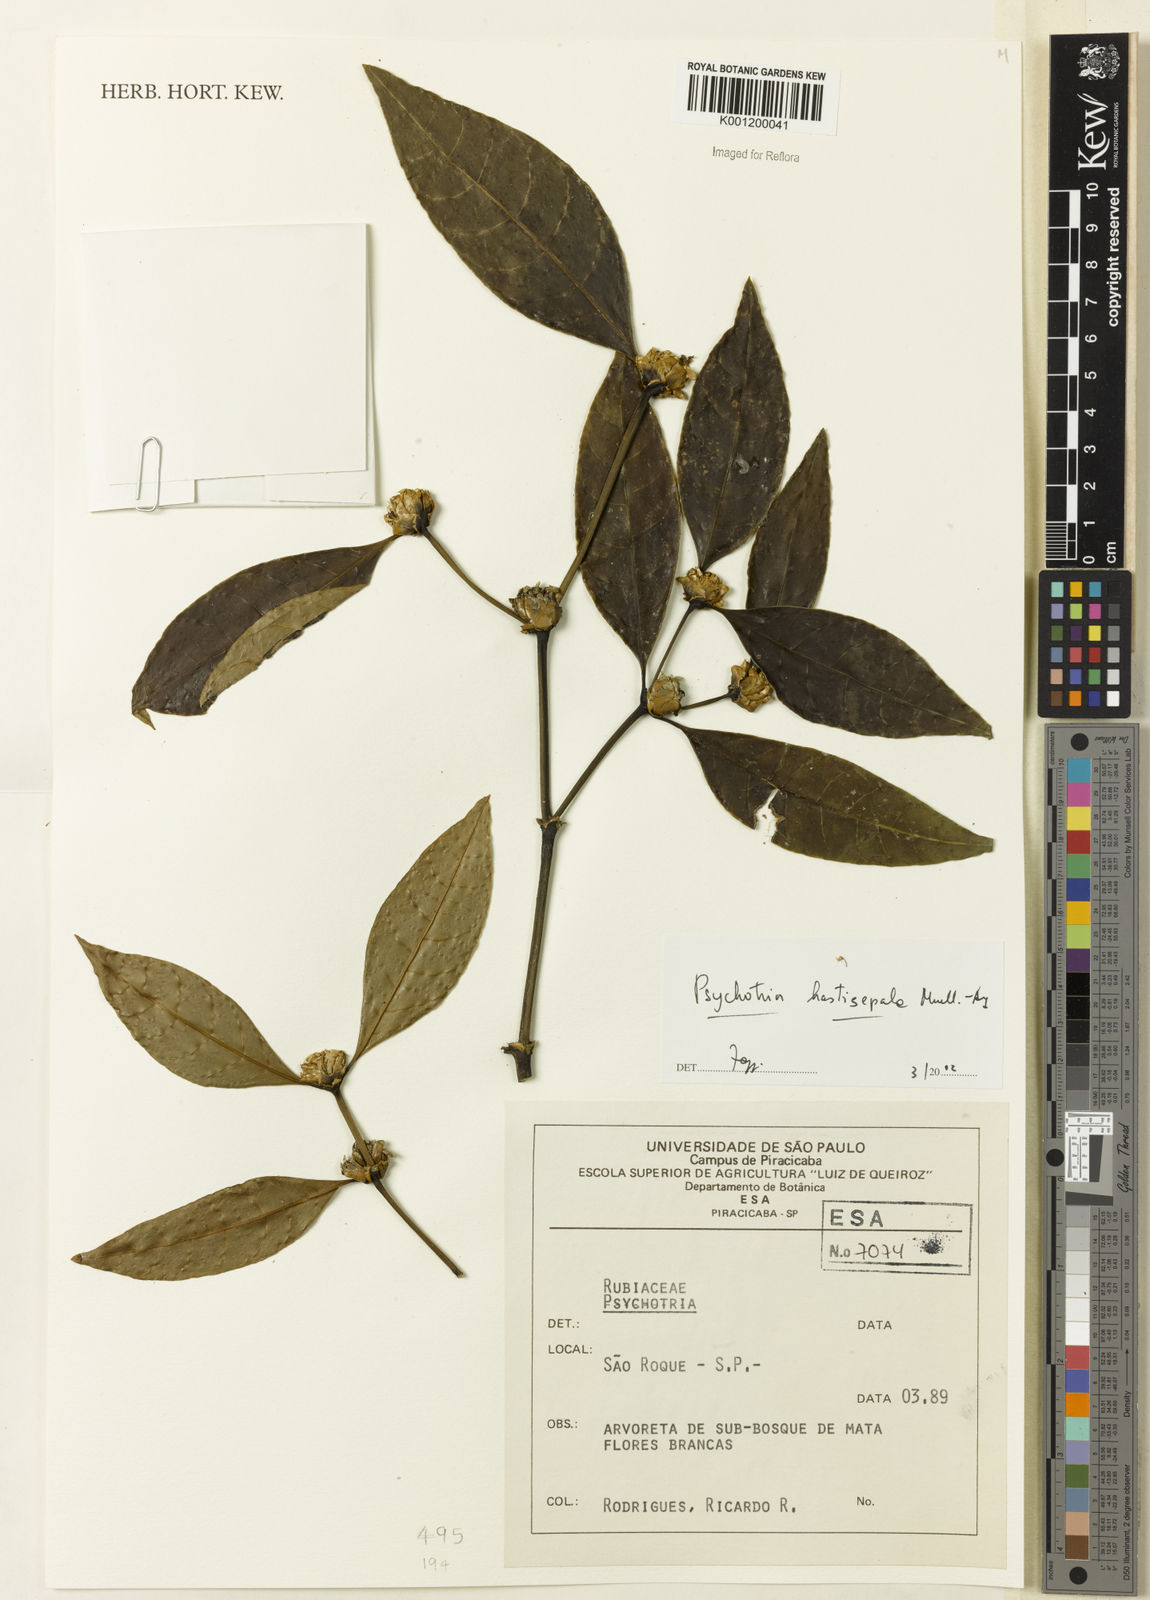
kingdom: Plantae
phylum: Tracheophyta
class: Magnoliopsida
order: Gentianales
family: Rubiaceae
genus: Psychotria
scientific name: Psychotria
